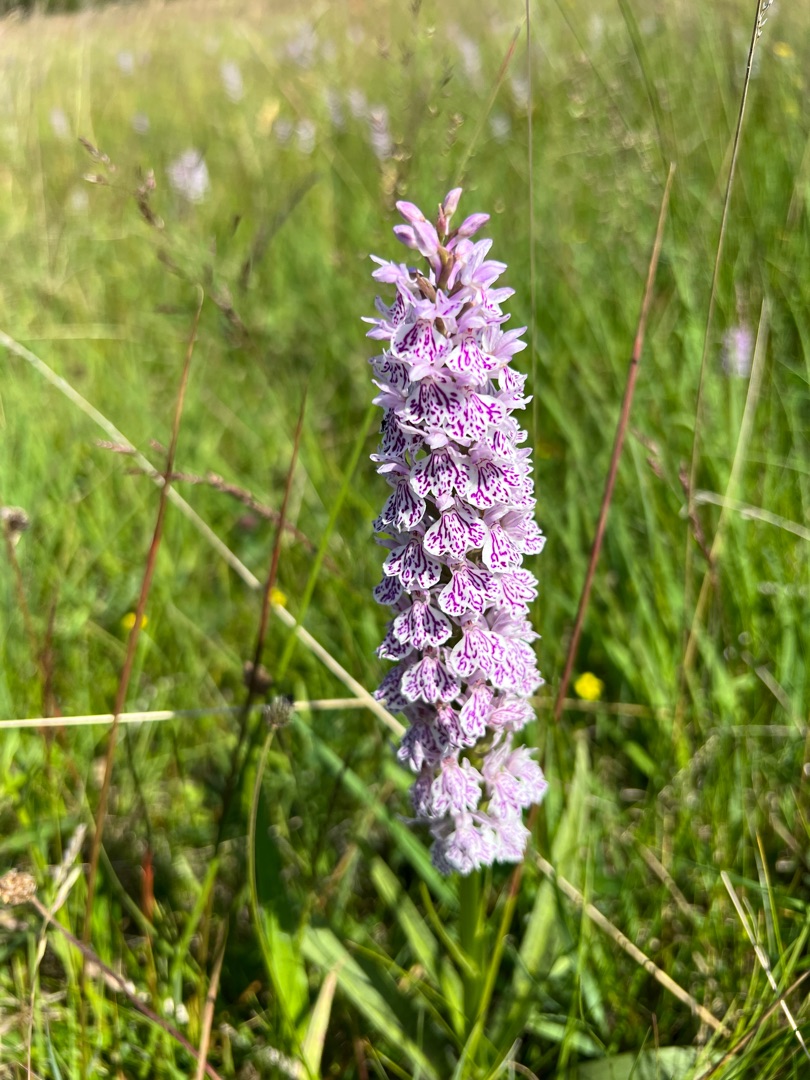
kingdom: Plantae
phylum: Tracheophyta
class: Liliopsida
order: Asparagales
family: Orchidaceae
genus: Dactylorhiza
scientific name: Dactylorhiza maculata
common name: Plettet gøgeurt
